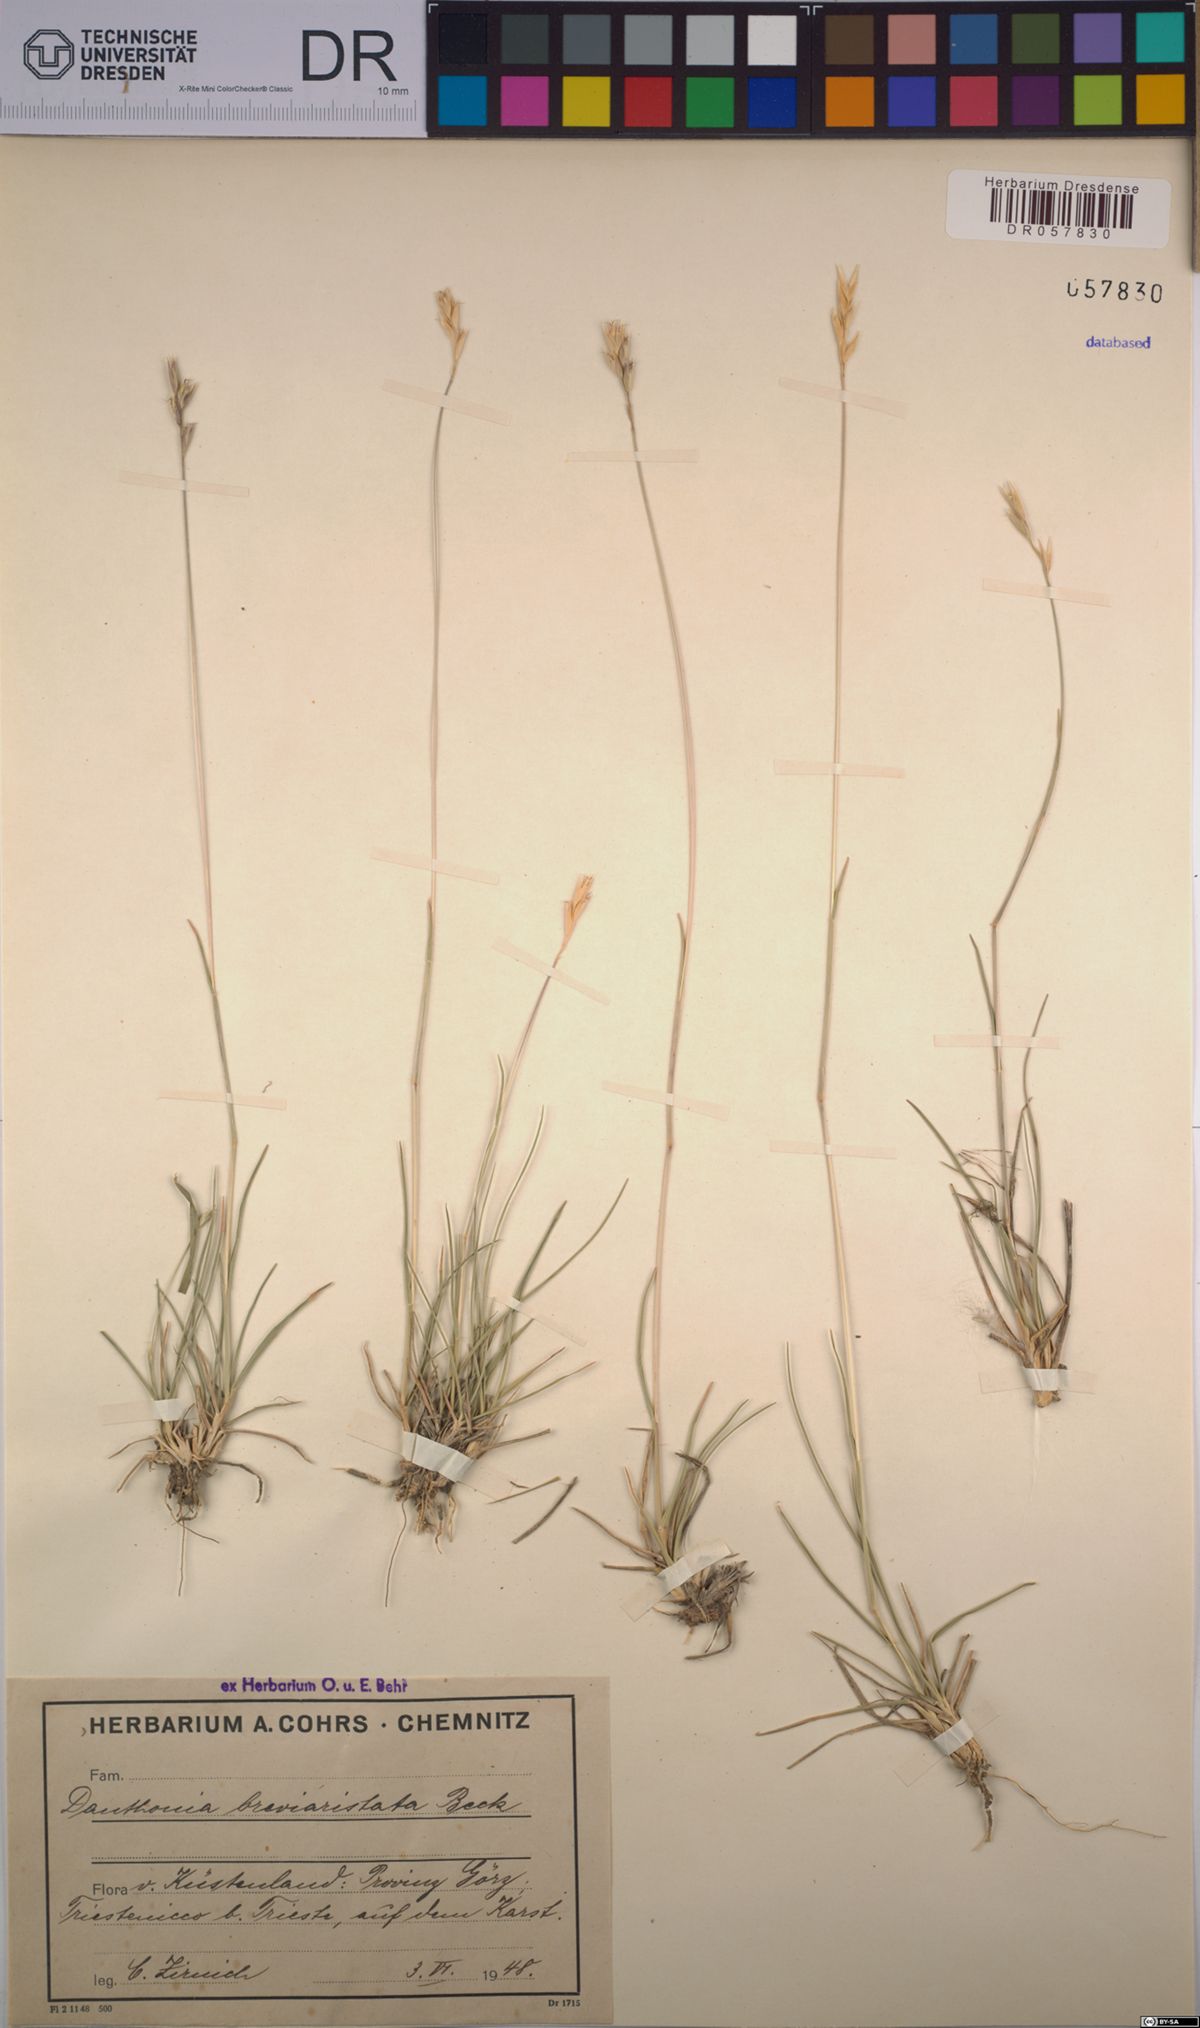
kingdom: Plantae
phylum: Tracheophyta
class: Liliopsida
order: Poales
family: Poaceae
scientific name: Poaceae
